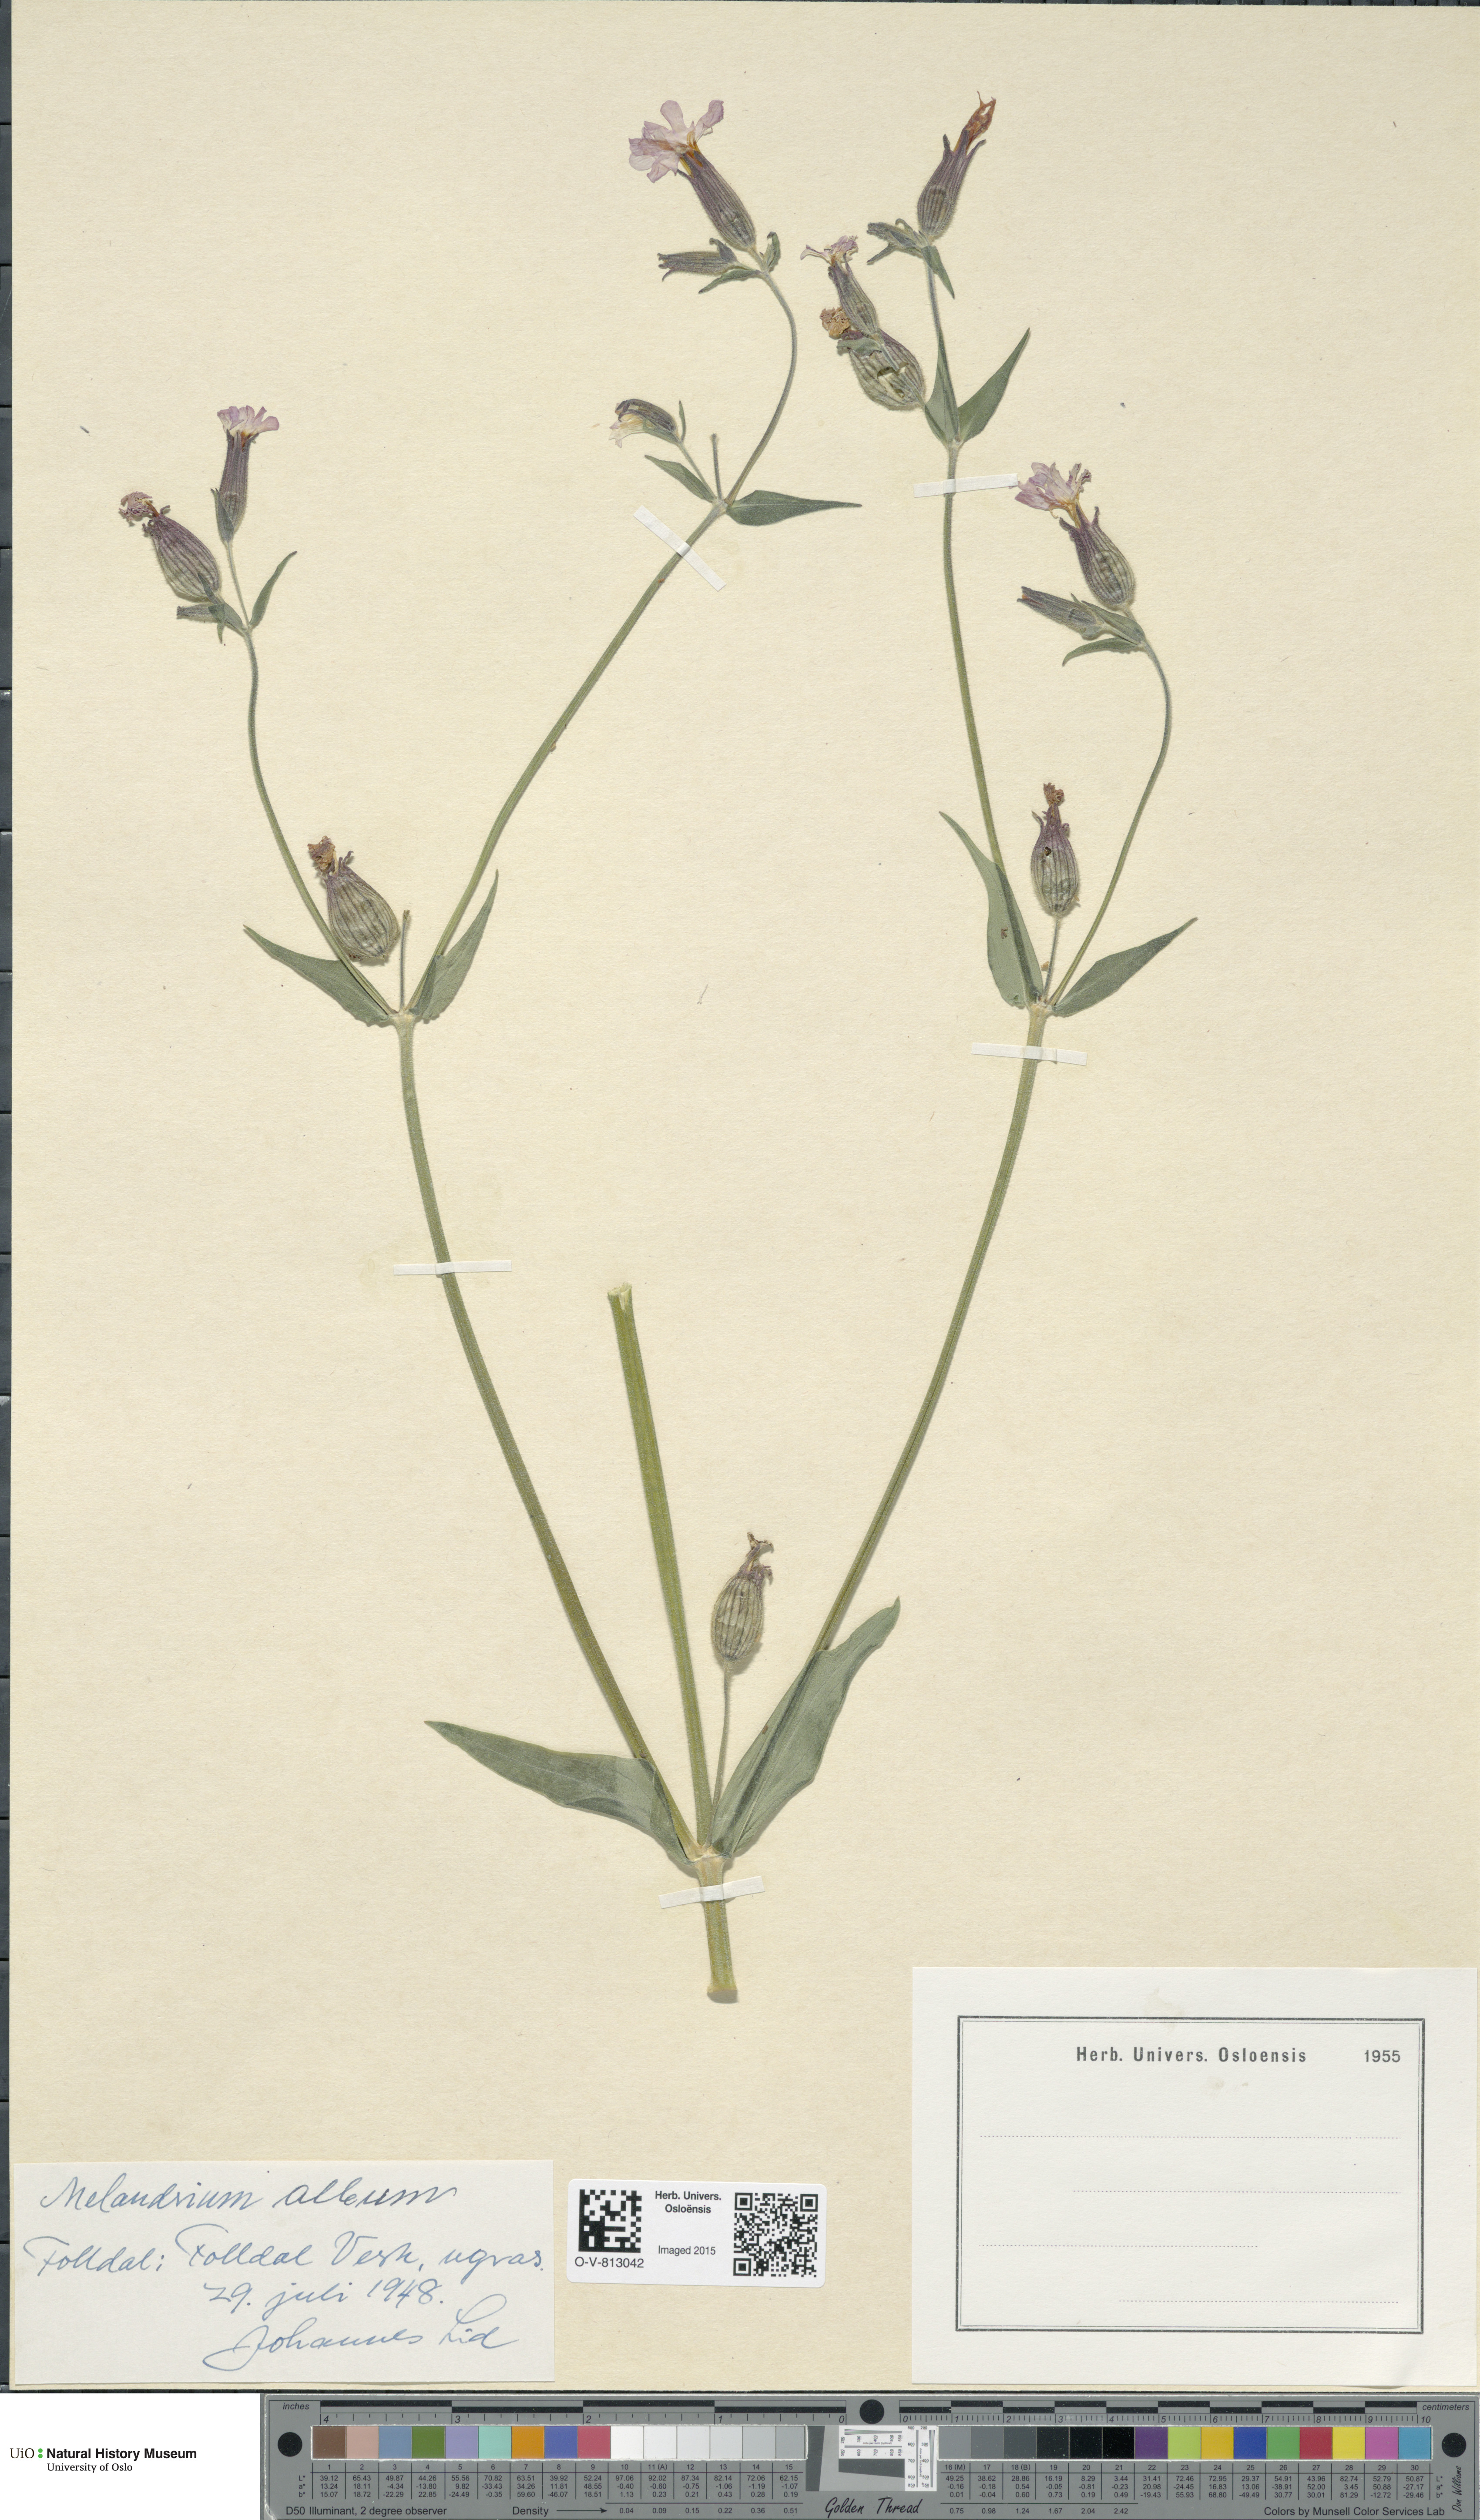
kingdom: Plantae
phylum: Tracheophyta
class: Magnoliopsida
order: Caryophyllales
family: Caryophyllaceae
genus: Silene
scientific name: Silene latifolia
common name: White campion
